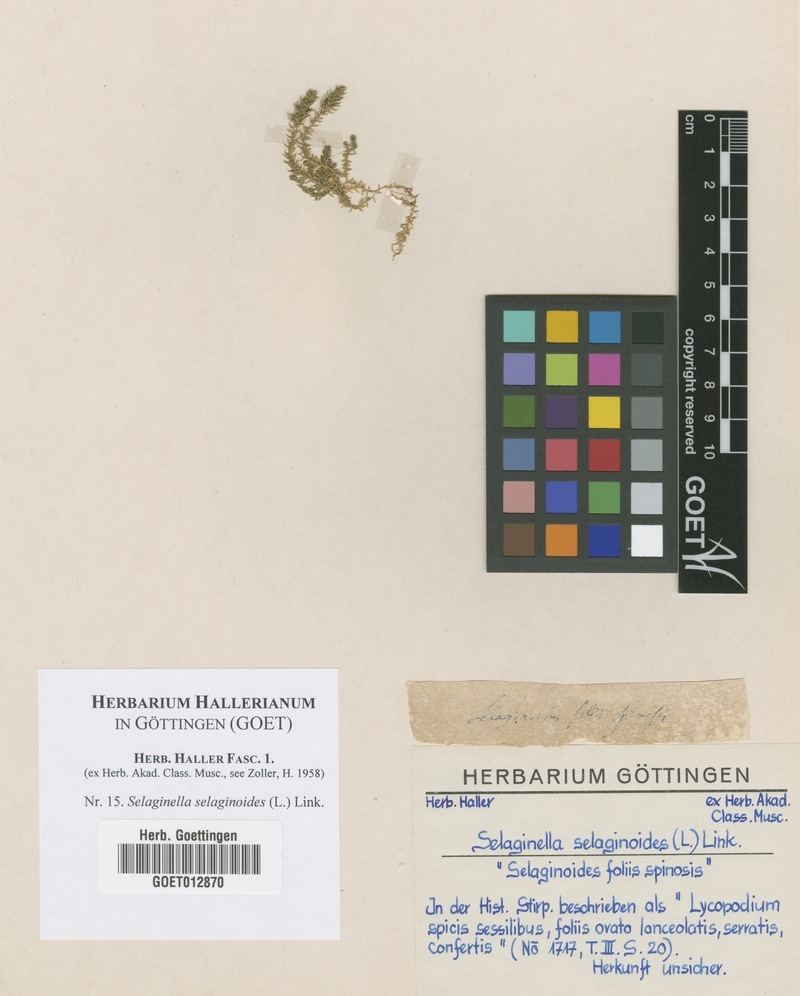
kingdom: Plantae
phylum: Tracheophyta
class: Lycopodiopsida
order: Selaginellales
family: Selaginellaceae
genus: Selaginella
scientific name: Selaginella selaginoides
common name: Prickly mountain-moss
